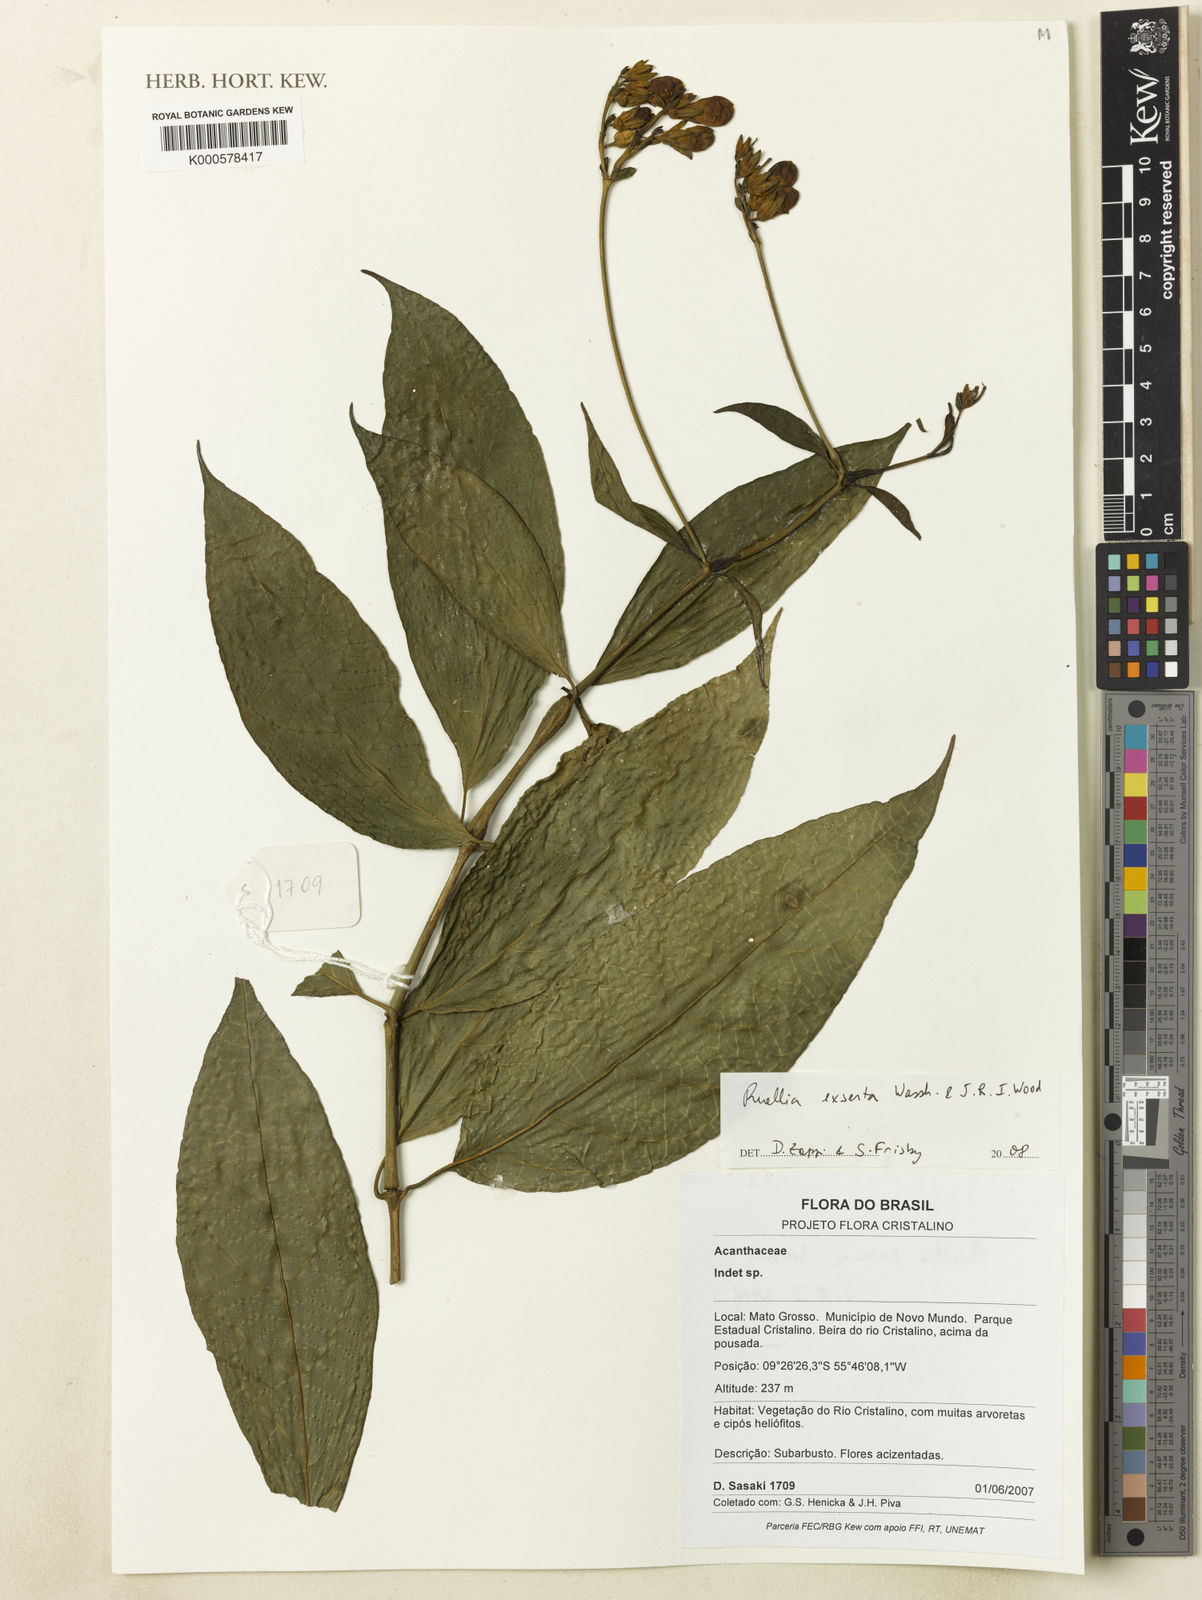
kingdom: Plantae
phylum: Tracheophyta
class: Magnoliopsida
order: Lamiales
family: Acanthaceae
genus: Ruellia
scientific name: Ruellia exserta
